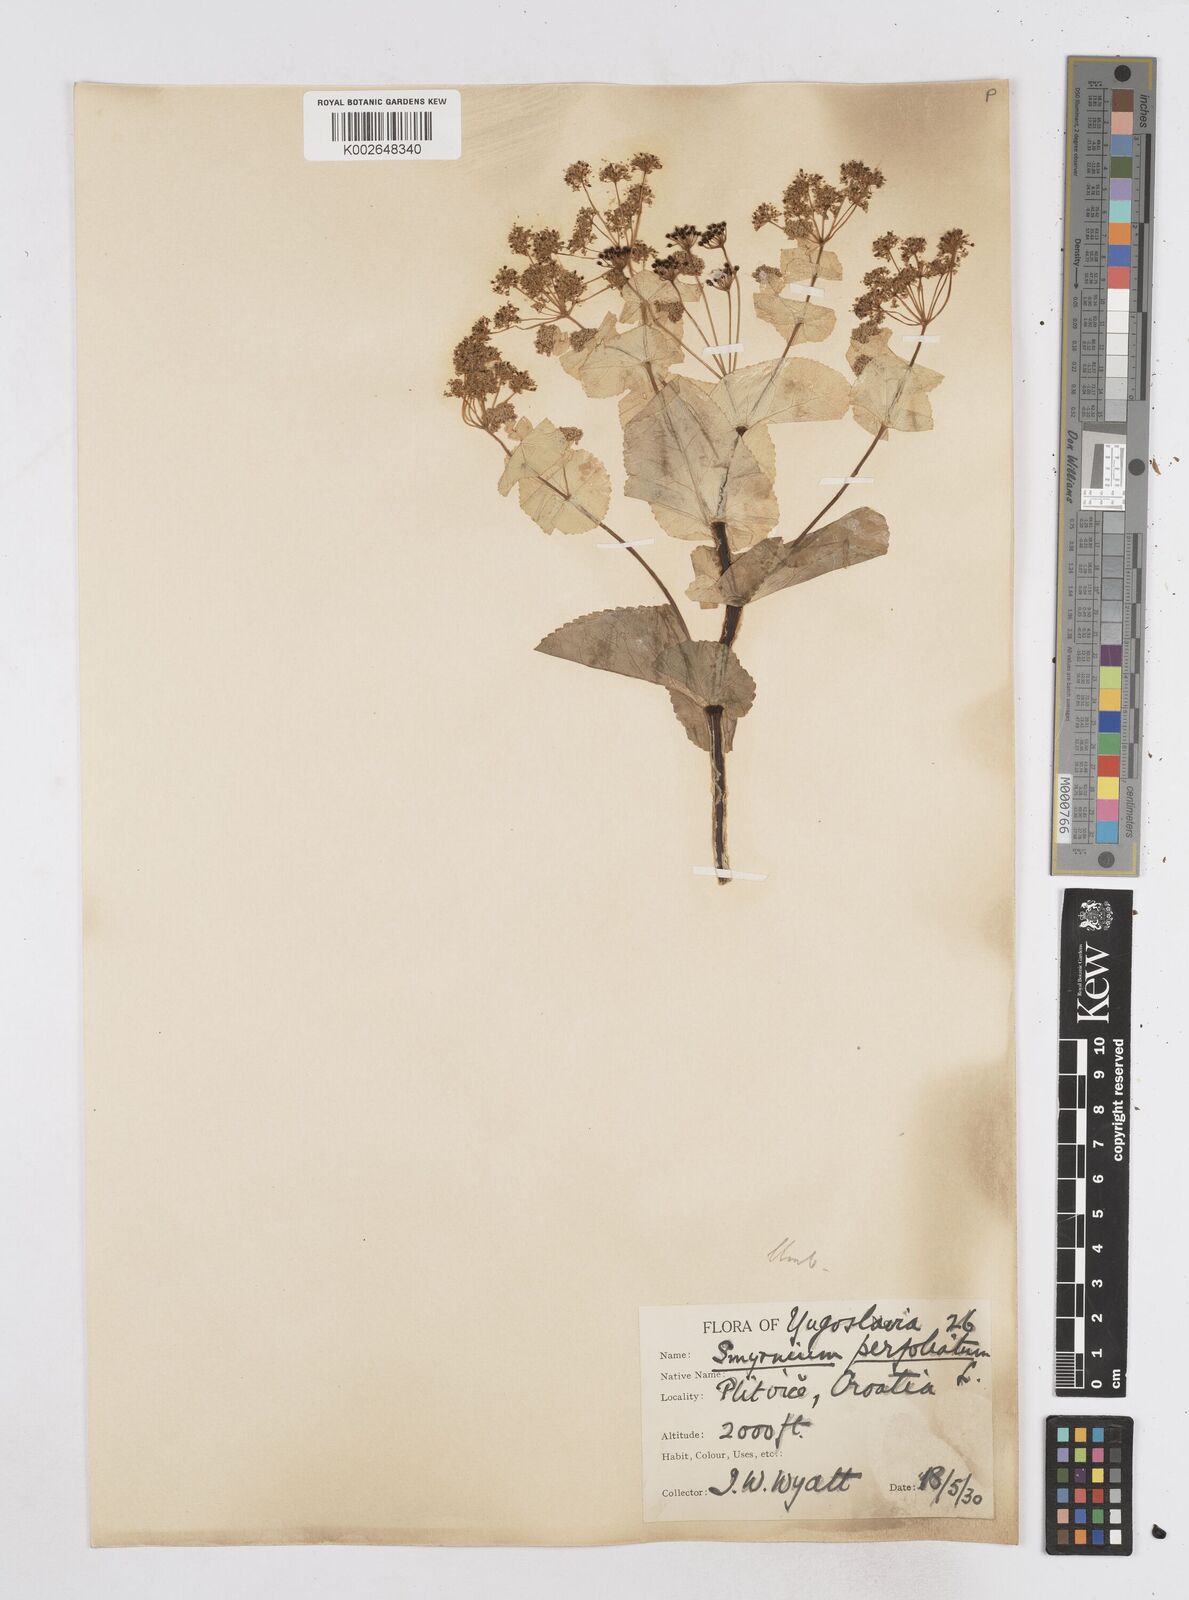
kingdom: Plantae
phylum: Tracheophyta
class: Magnoliopsida
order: Apiales
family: Apiaceae
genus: Smyrnium
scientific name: Smyrnium perfoliatum
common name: Perfoliate alexanders
